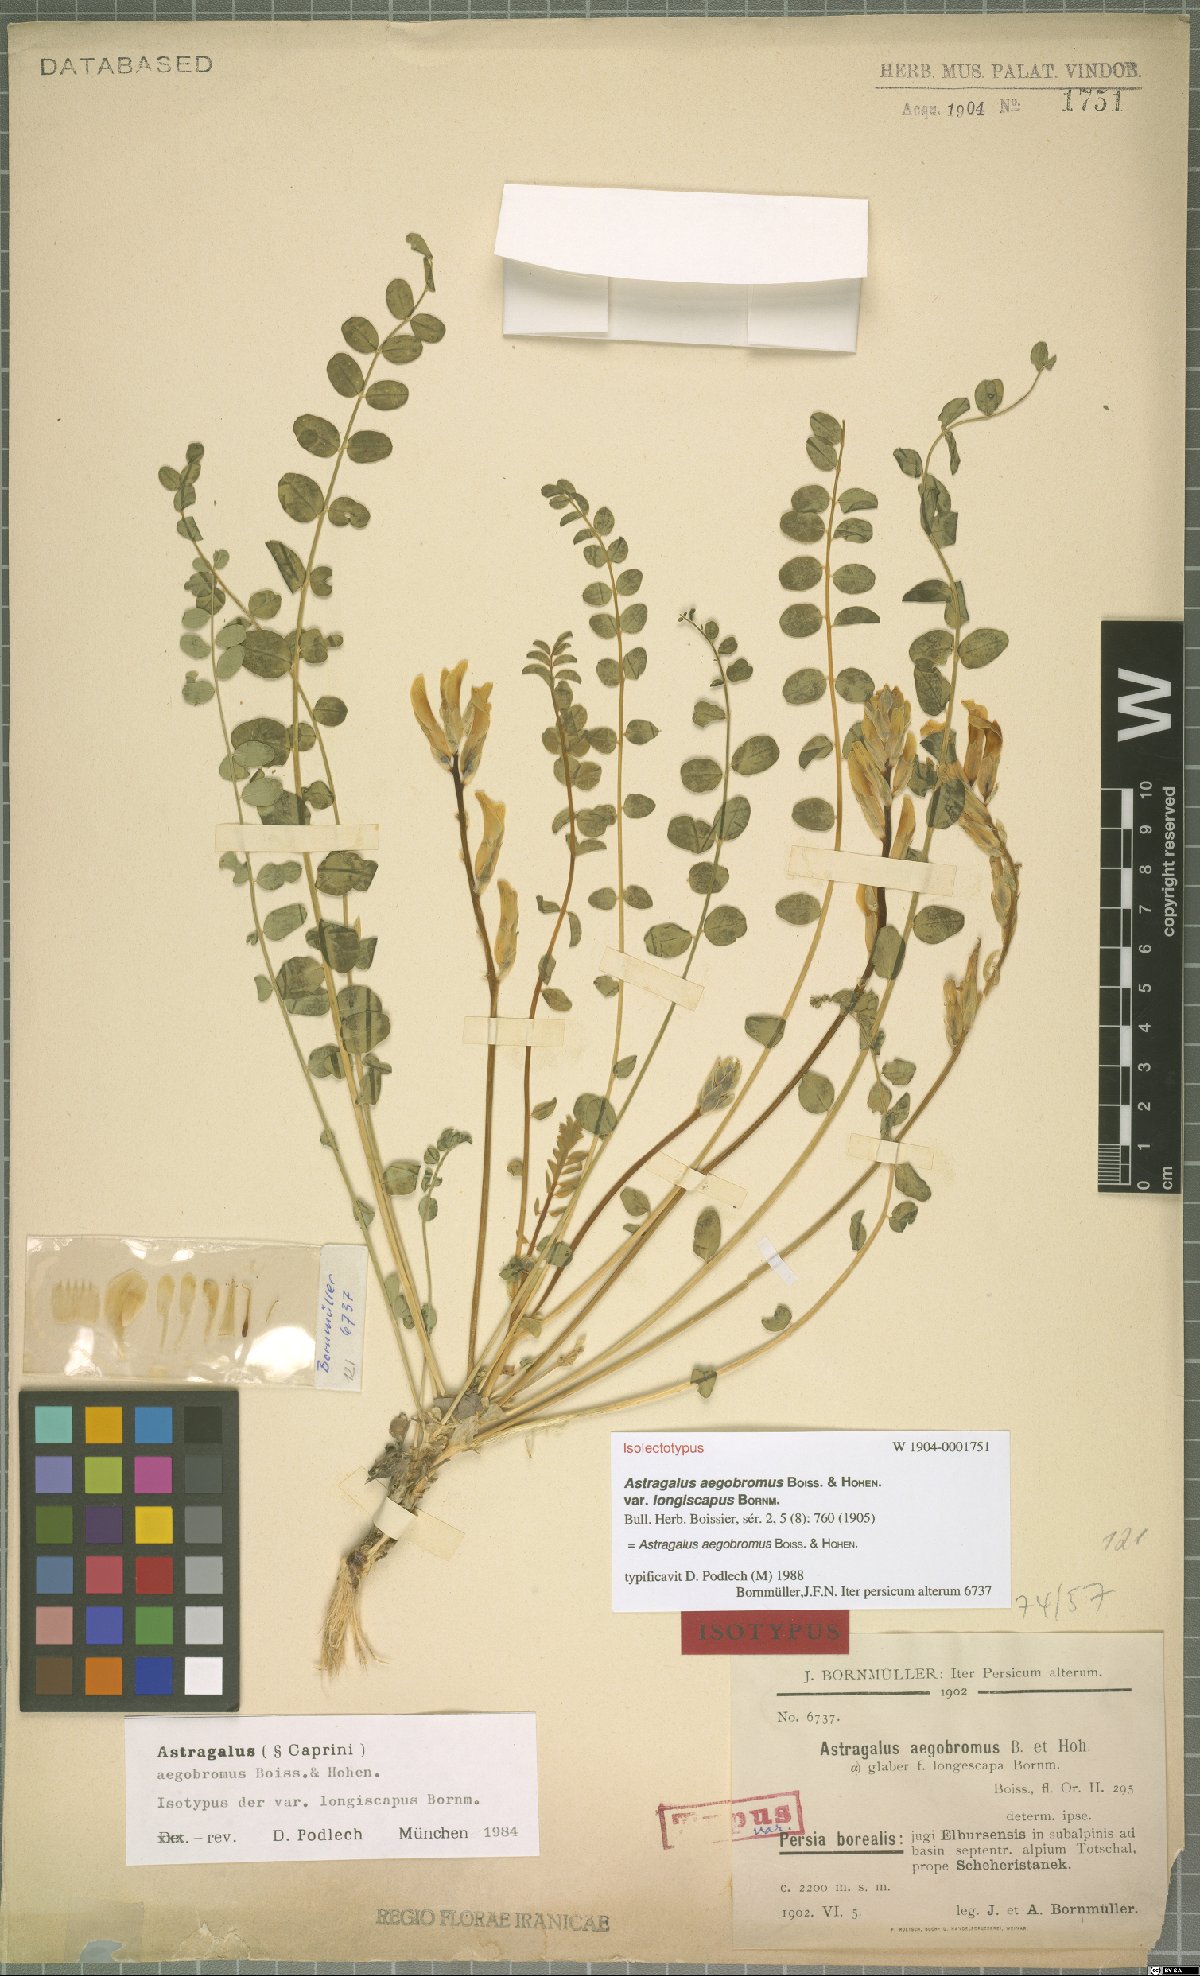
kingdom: Plantae
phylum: Tracheophyta
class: Magnoliopsida
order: Fabales
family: Fabaceae
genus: Astragalus
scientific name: Astragalus aegobromus
